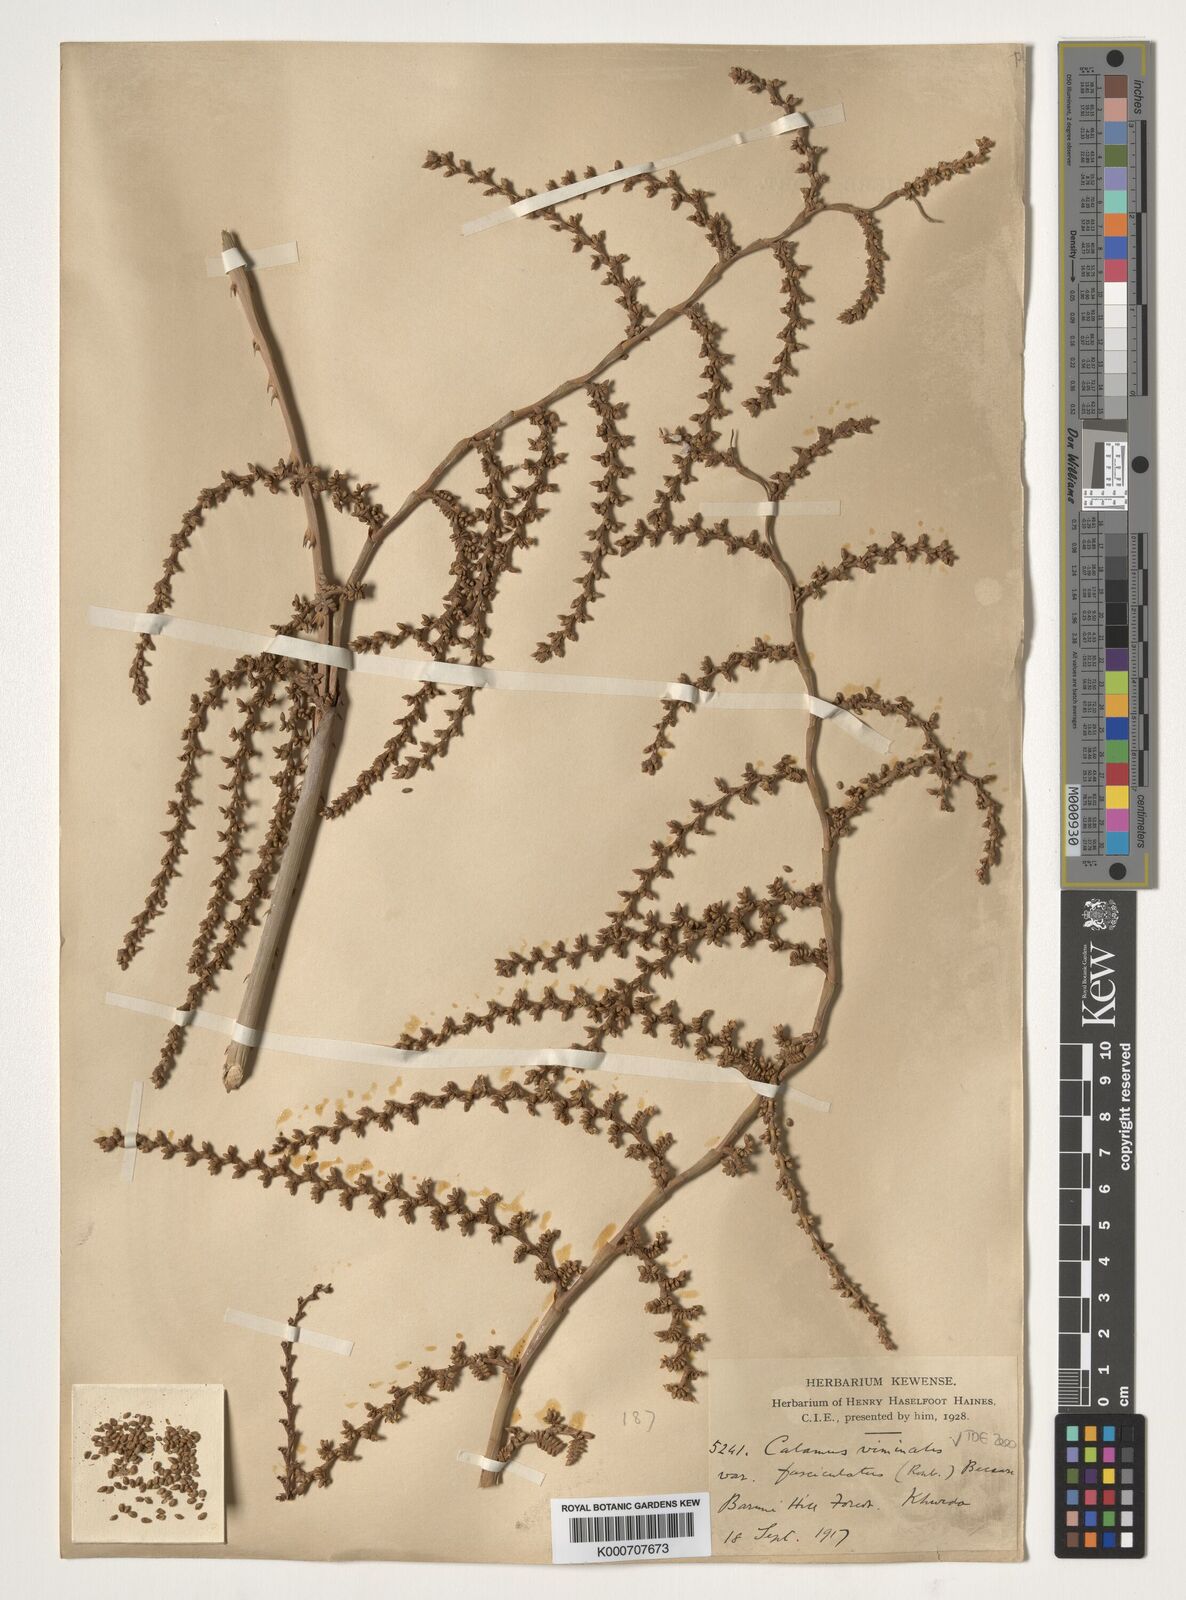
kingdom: Plantae
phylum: Tracheophyta
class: Liliopsida
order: Arecales
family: Arecaceae
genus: Calamus
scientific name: Calamus viminalis
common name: Osier-like rattan palm
